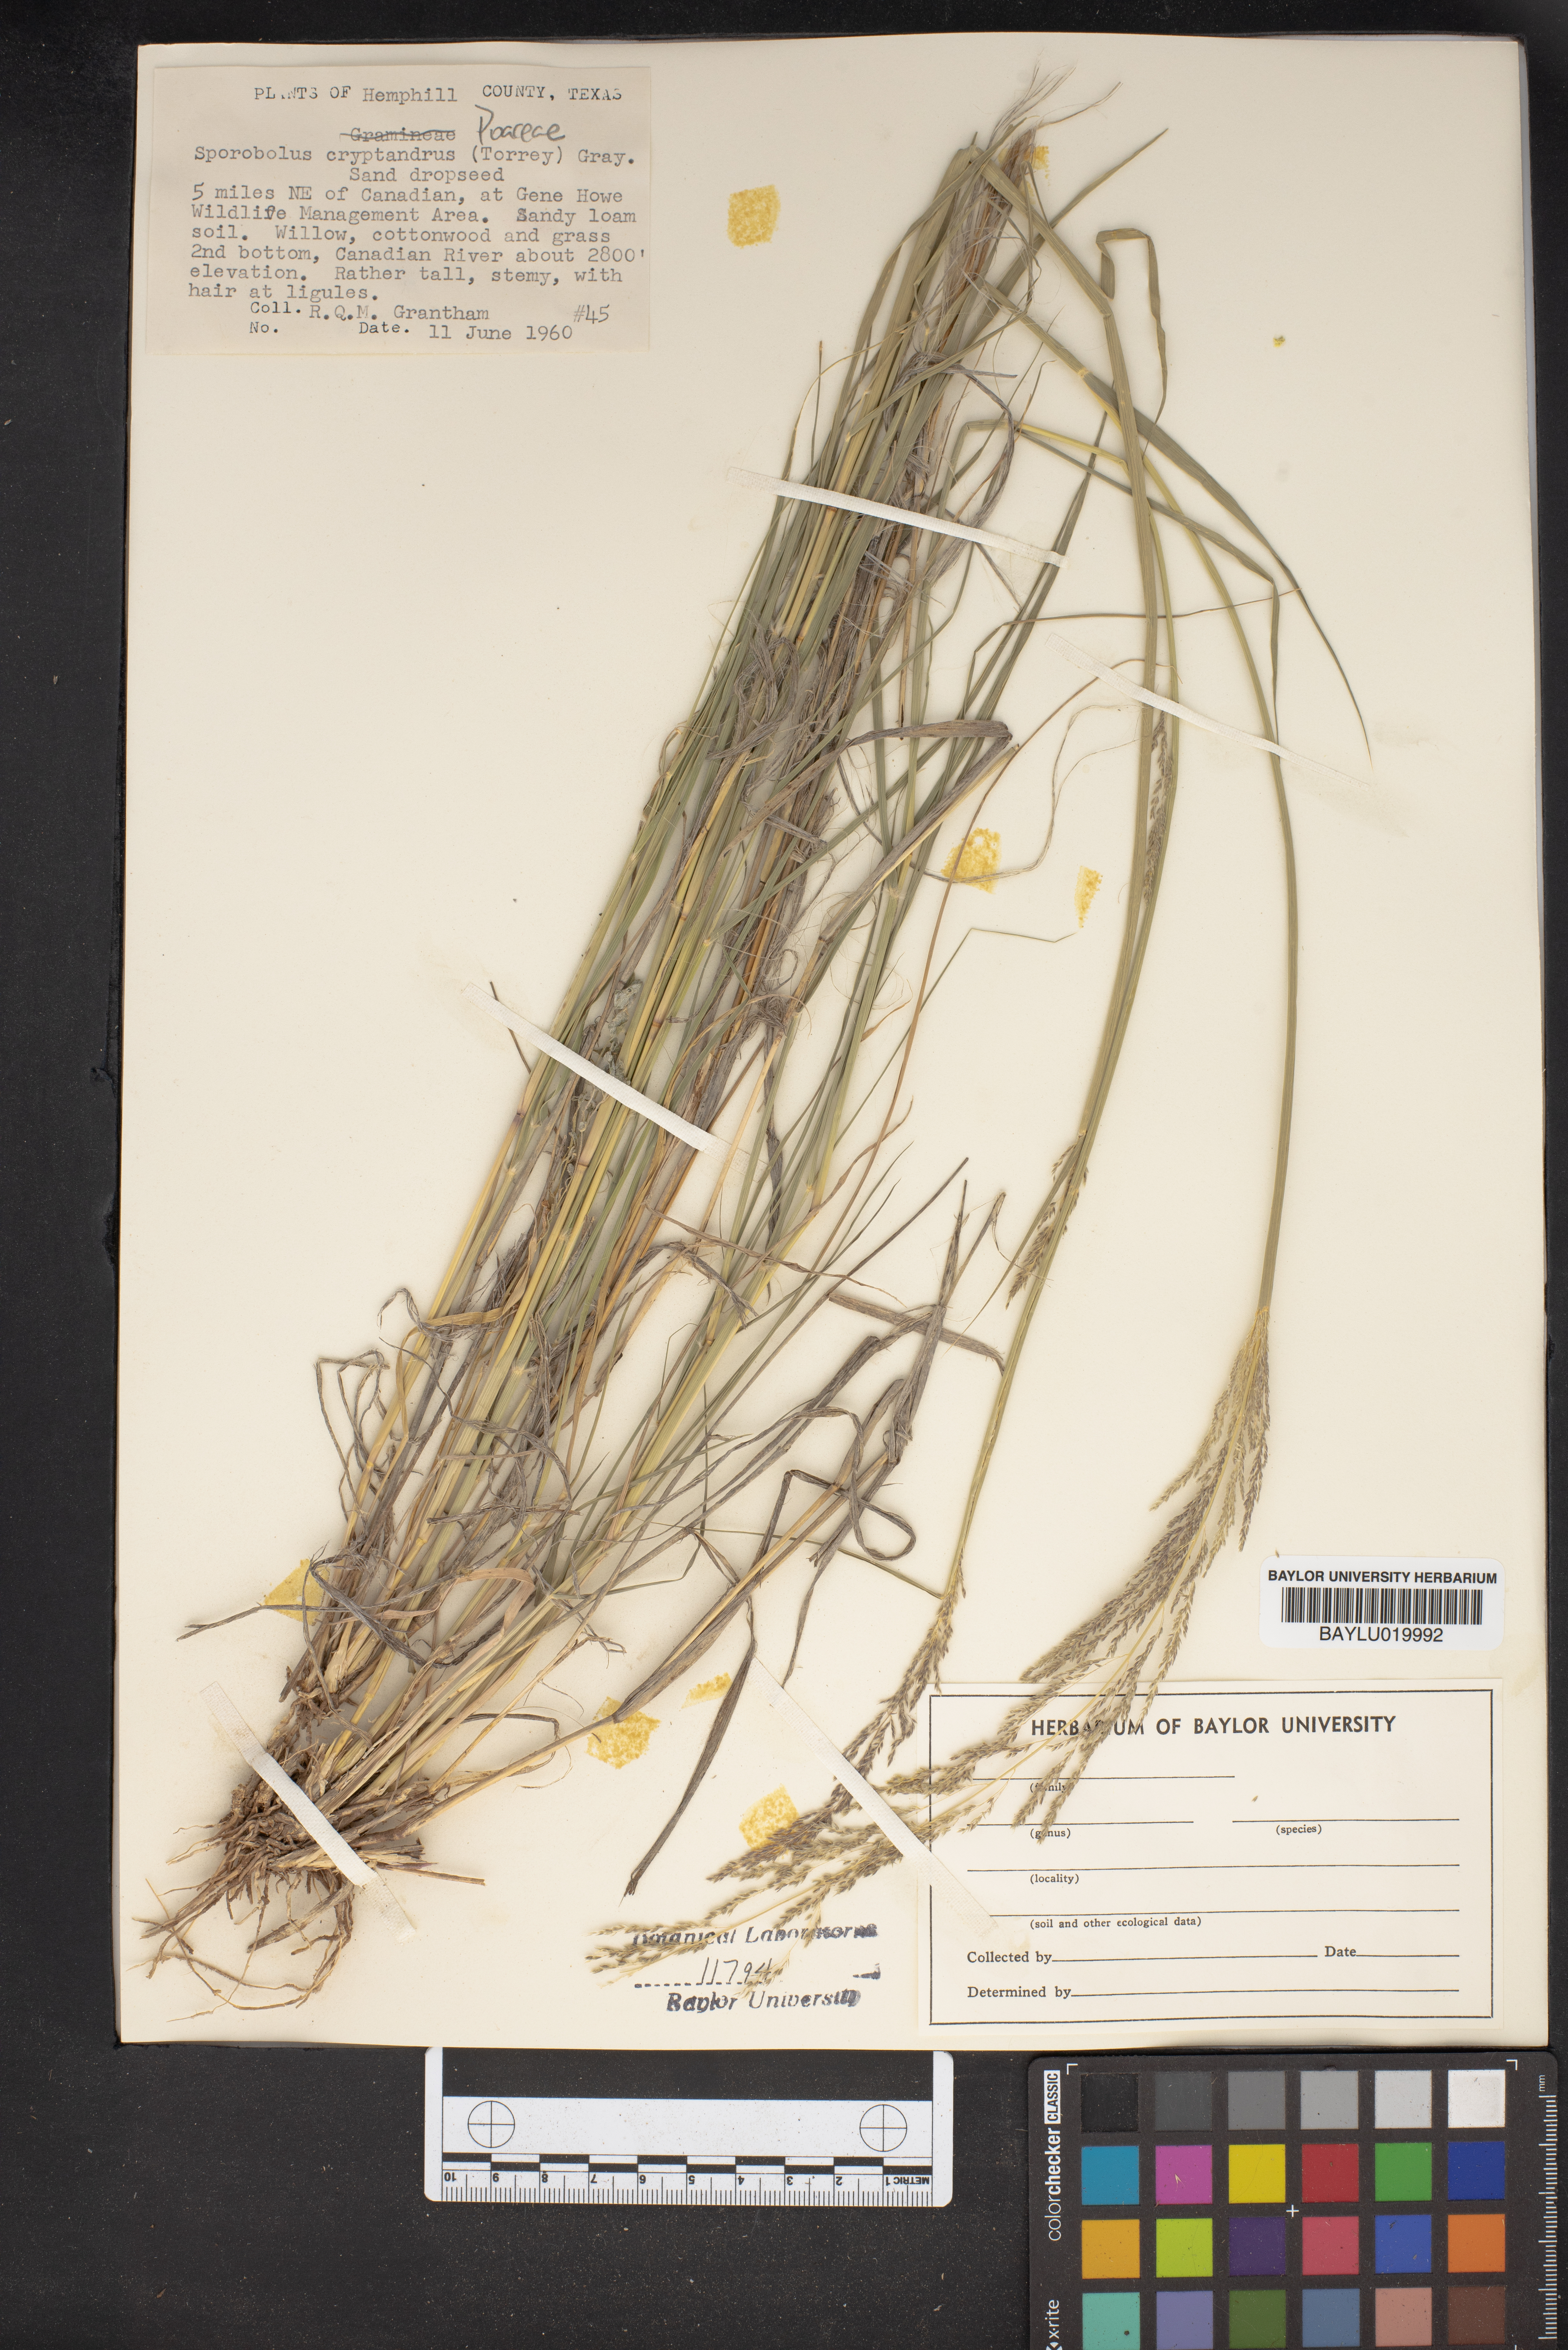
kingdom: Plantae
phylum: Tracheophyta
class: Liliopsida
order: Poales
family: Poaceae
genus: Sporobolus
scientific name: Sporobolus cryptandrus
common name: Sand dropseed
